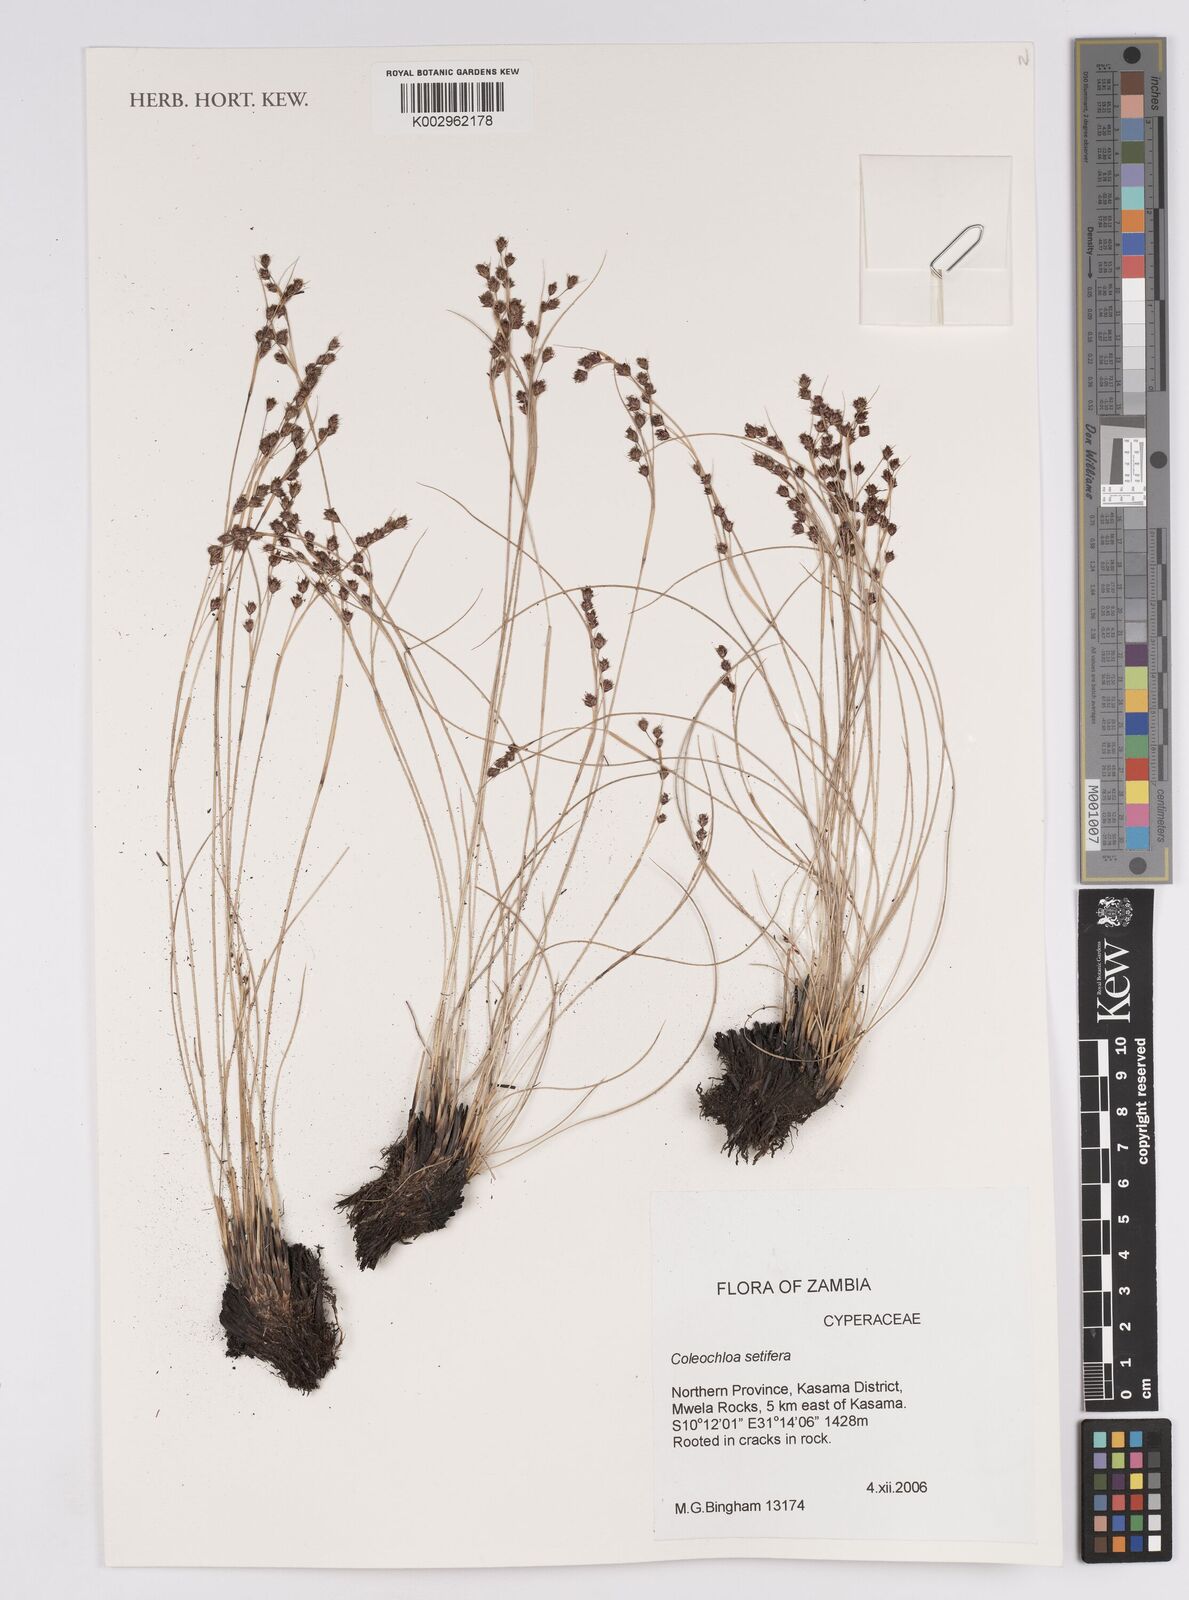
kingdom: Plantae
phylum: Tracheophyta
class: Liliopsida
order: Poales
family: Cyperaceae
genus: Coleochloa
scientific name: Coleochloa setifera
